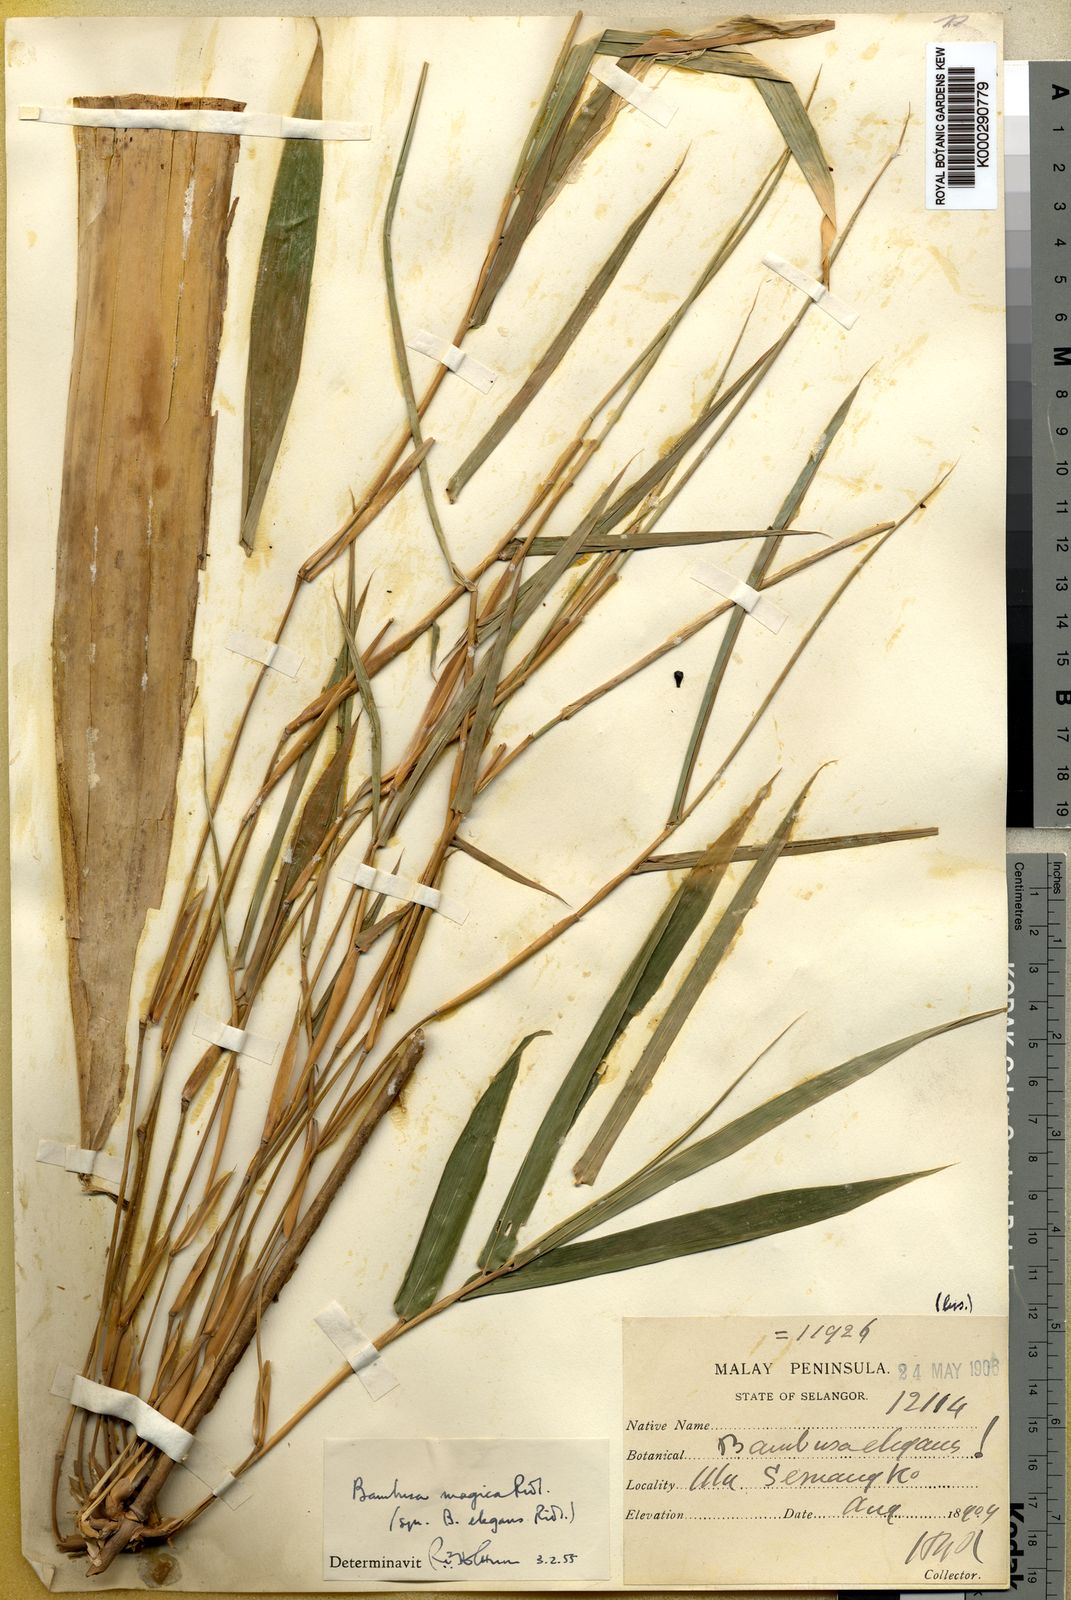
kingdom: Plantae
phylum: Tracheophyta
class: Liliopsida
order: Poales
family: Poaceae
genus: Holttumochloa
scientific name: Holttumochloa magica
